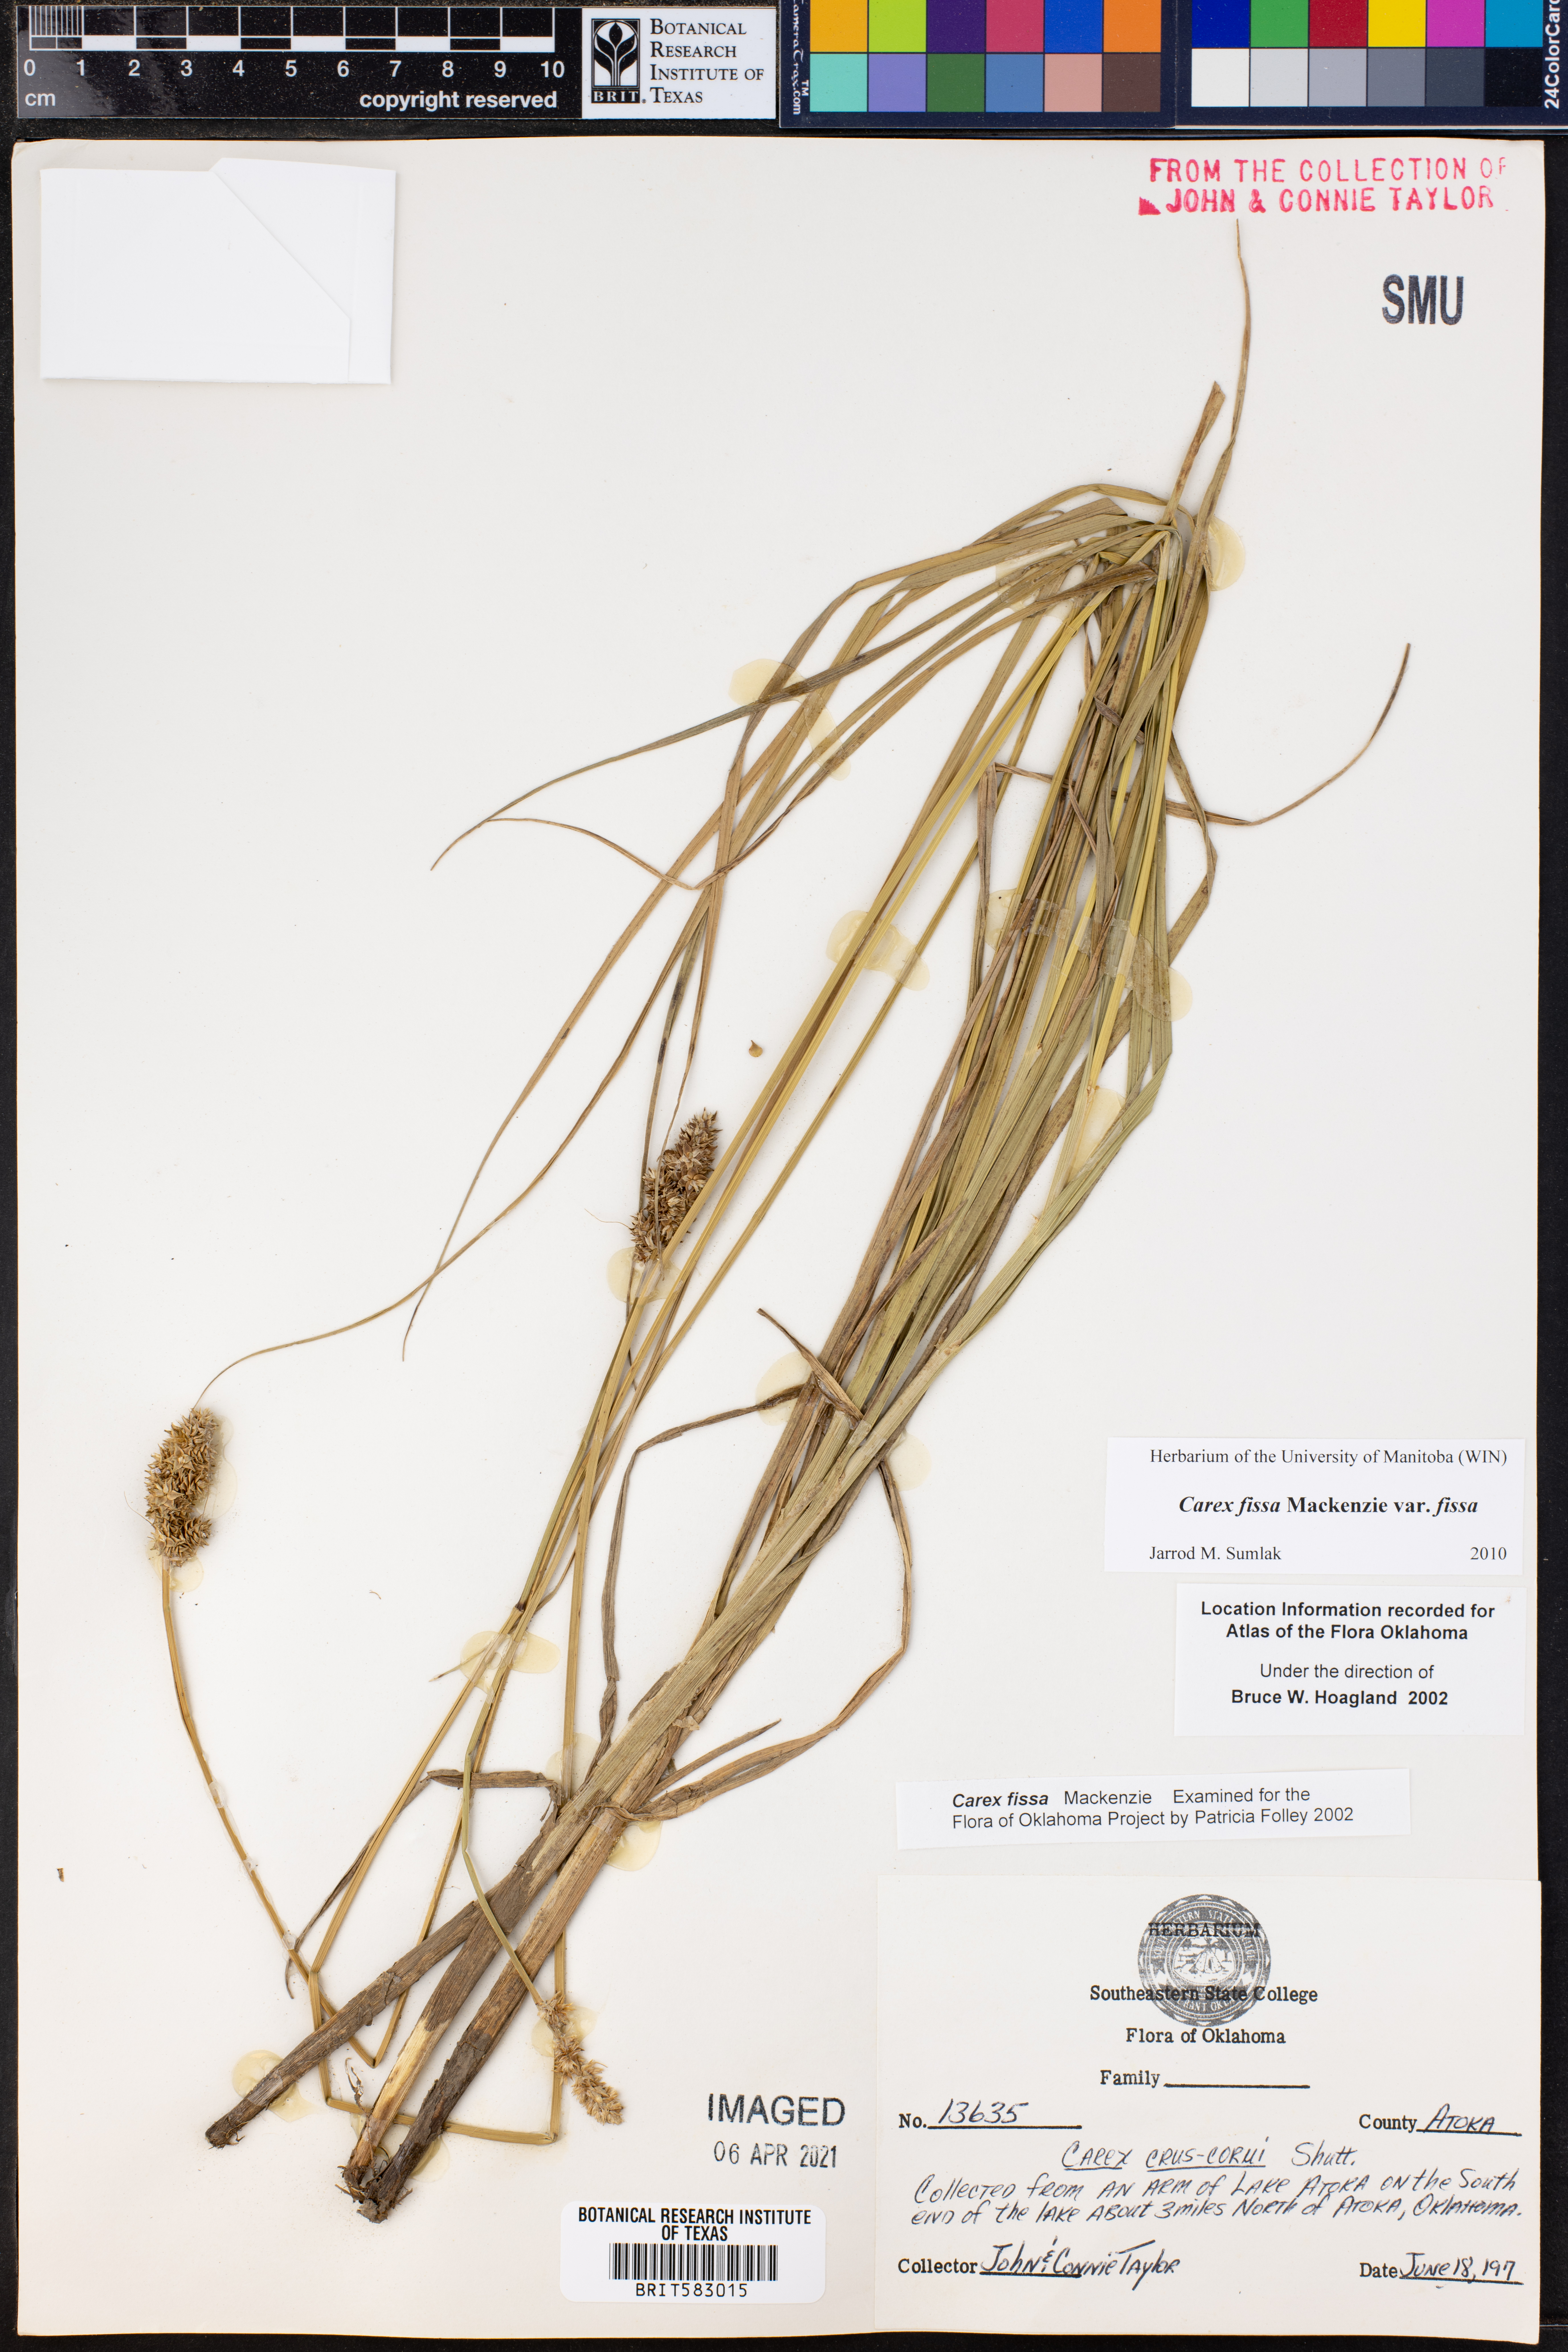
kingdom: Plantae
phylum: Tracheophyta
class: Liliopsida
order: Poales
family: Cyperaceae
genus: Carex
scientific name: Carex fissa
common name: Hammock sedge
